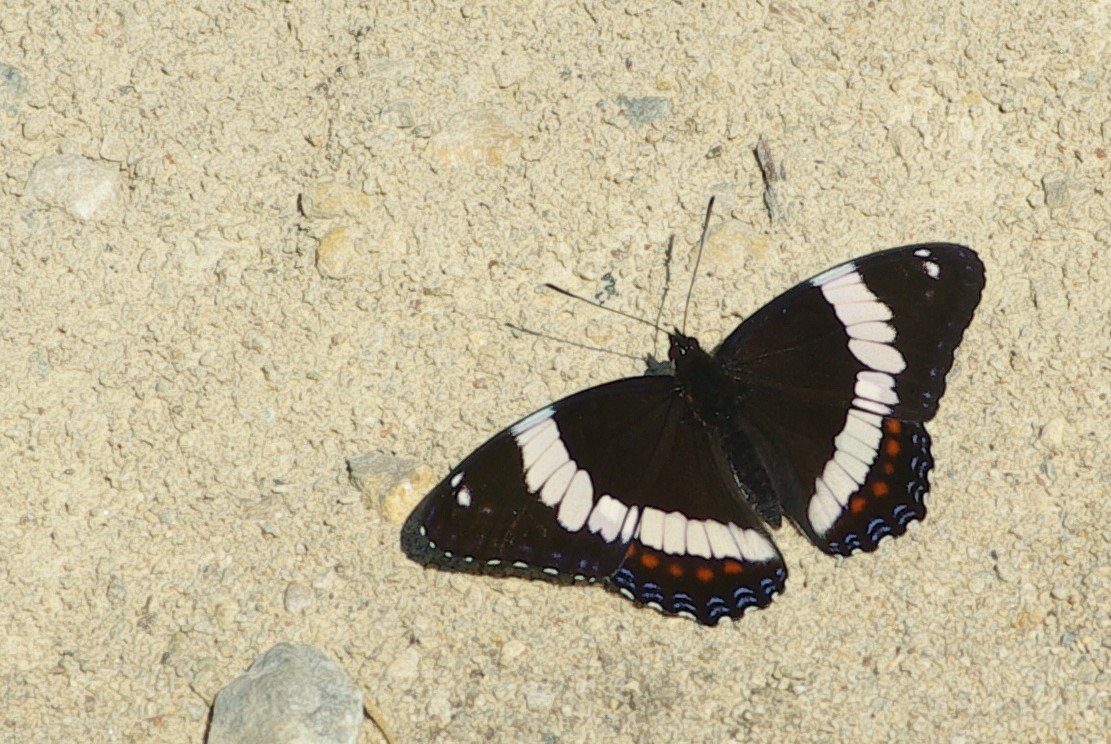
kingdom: Animalia
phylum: Arthropoda
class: Insecta
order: Lepidoptera
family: Nymphalidae
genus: Limenitis
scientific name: Limenitis arthemis
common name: Red-spotted Admiral
